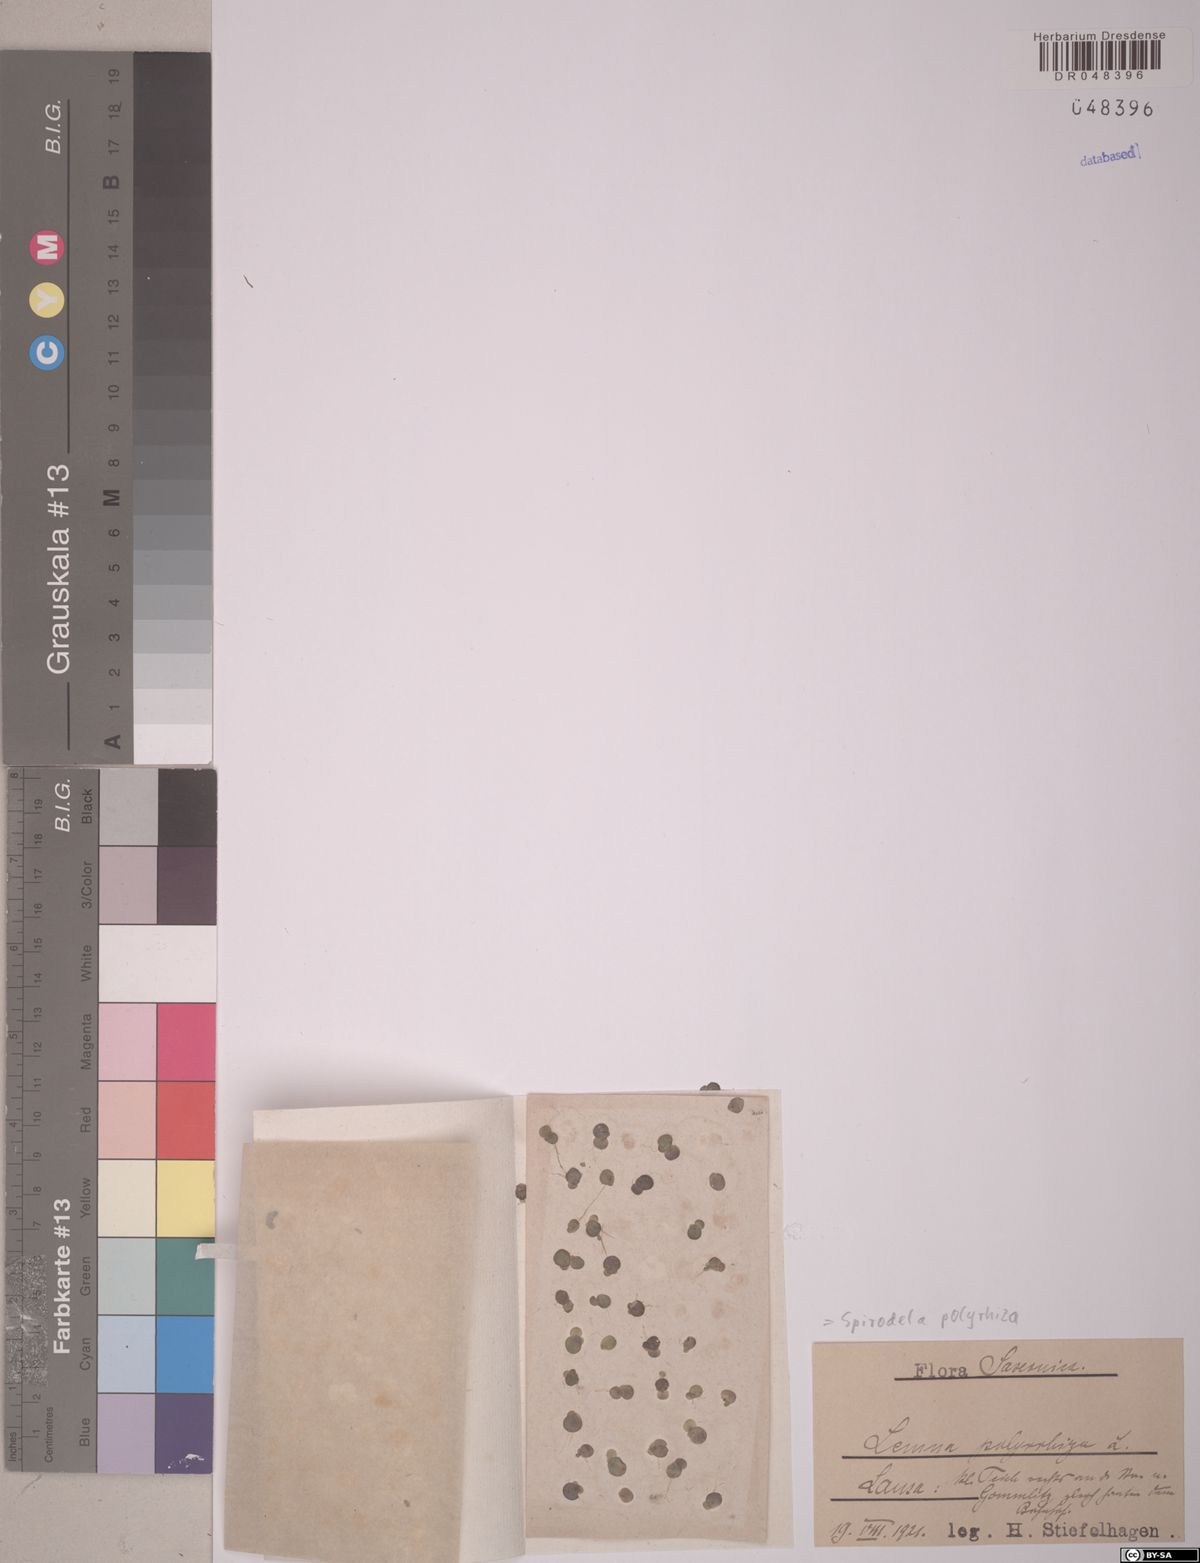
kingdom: Plantae
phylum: Tracheophyta
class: Liliopsida
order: Alismatales
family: Araceae
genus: Spirodela
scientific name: Spirodela polyrhiza
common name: Great duckweed
